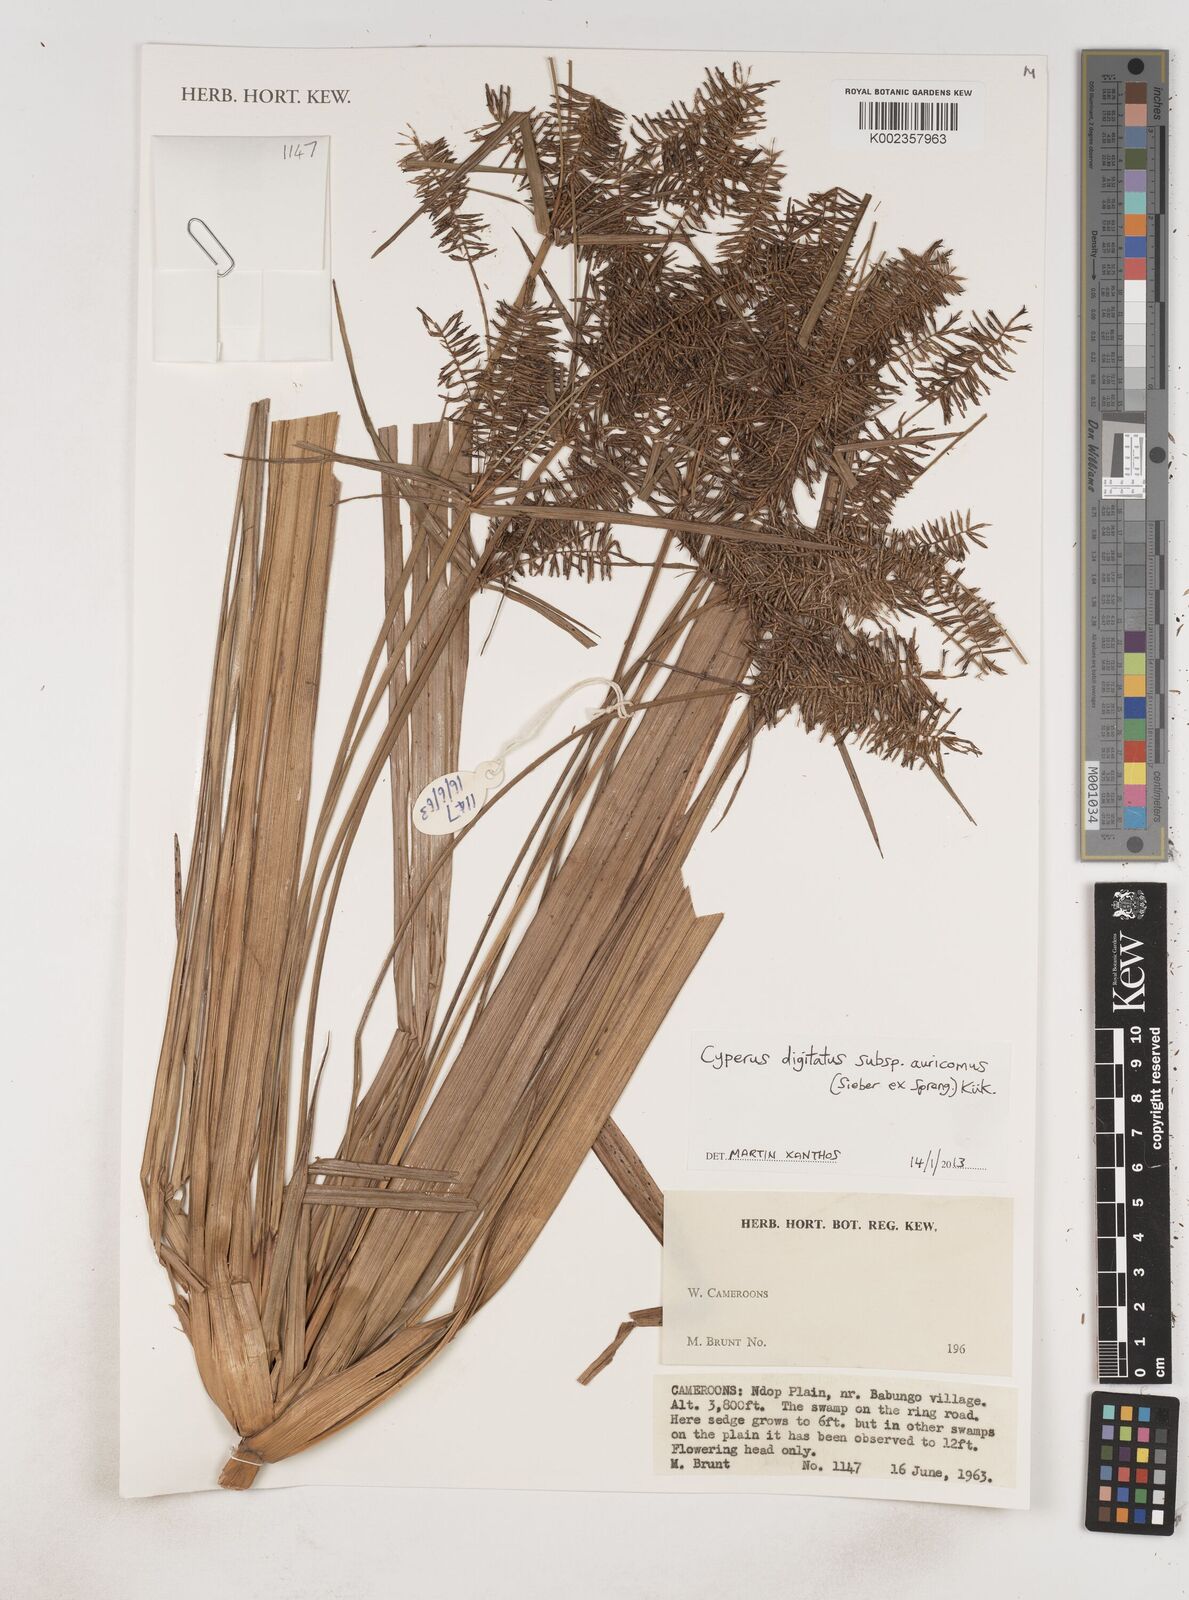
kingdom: Plantae
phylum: Tracheophyta
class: Liliopsida
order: Poales
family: Cyperaceae
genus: Cyperus
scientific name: Cyperus digitatus
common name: Finger flatsedge
